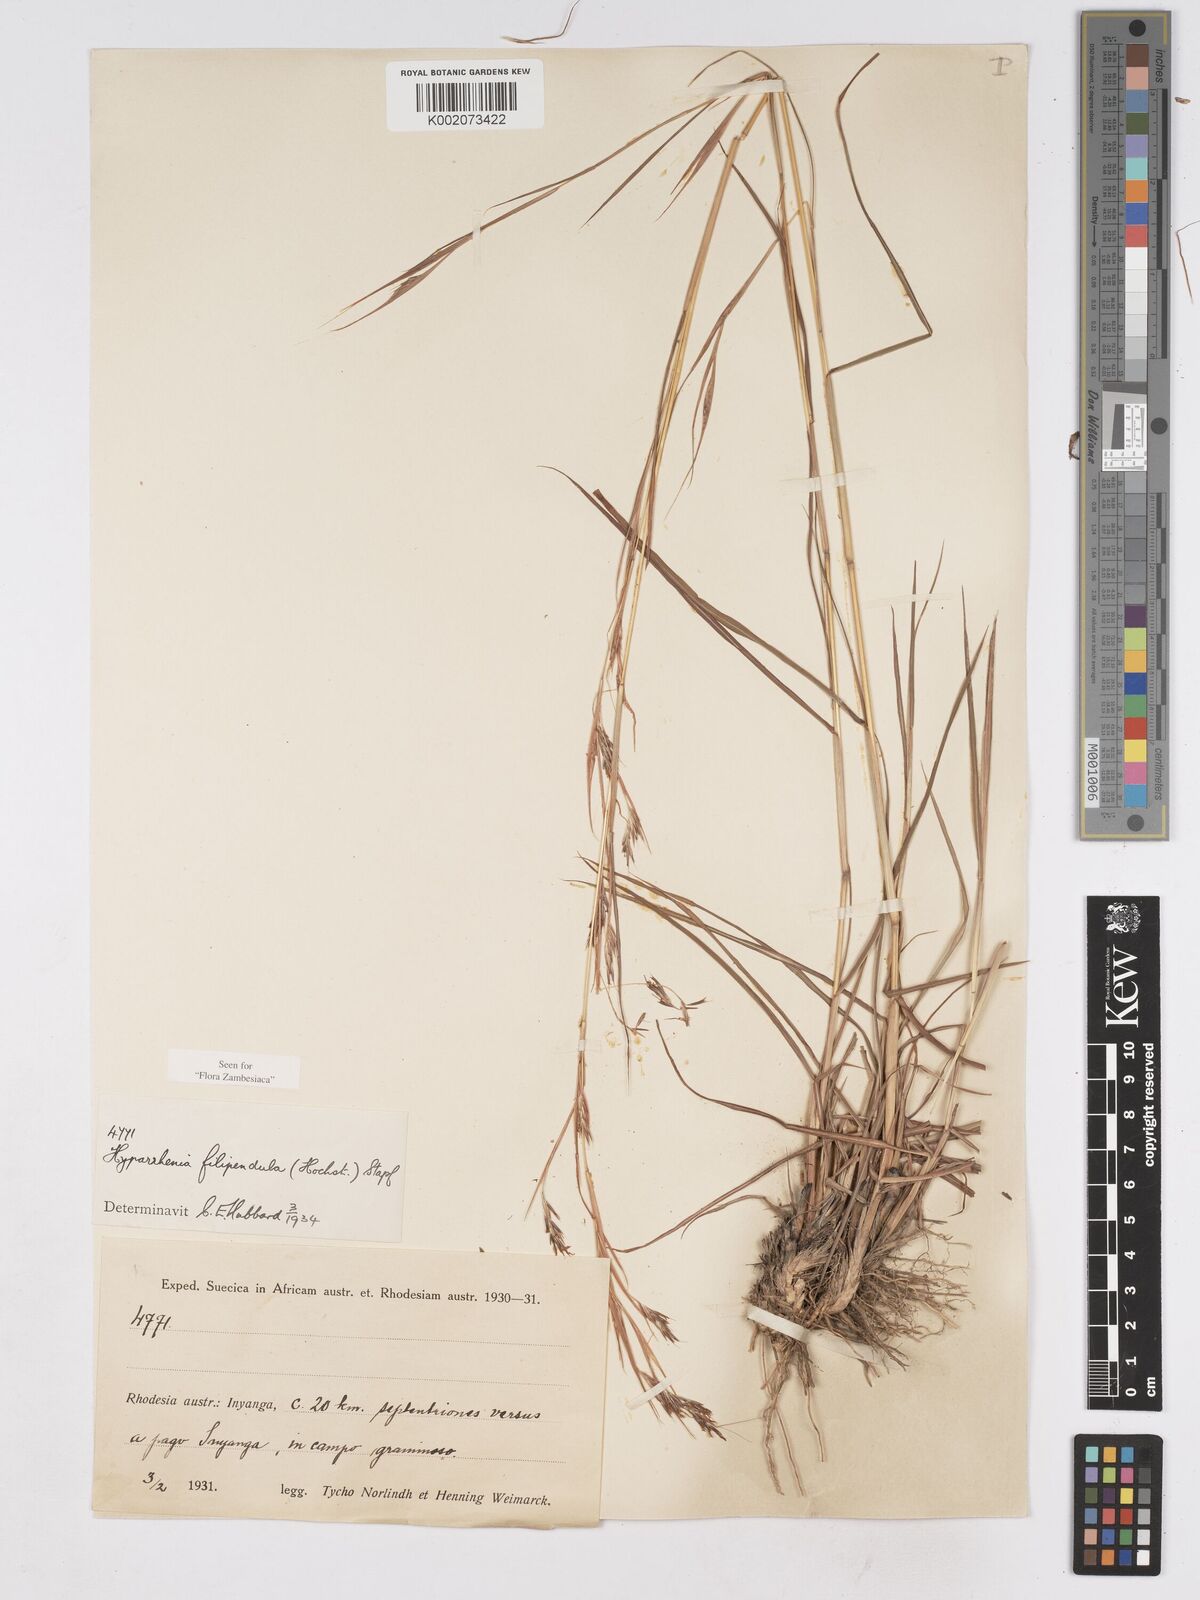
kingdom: Plantae
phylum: Tracheophyta
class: Liliopsida
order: Poales
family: Poaceae
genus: Hyparrhenia
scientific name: Hyparrhenia filipendula
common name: Tambookie grass
